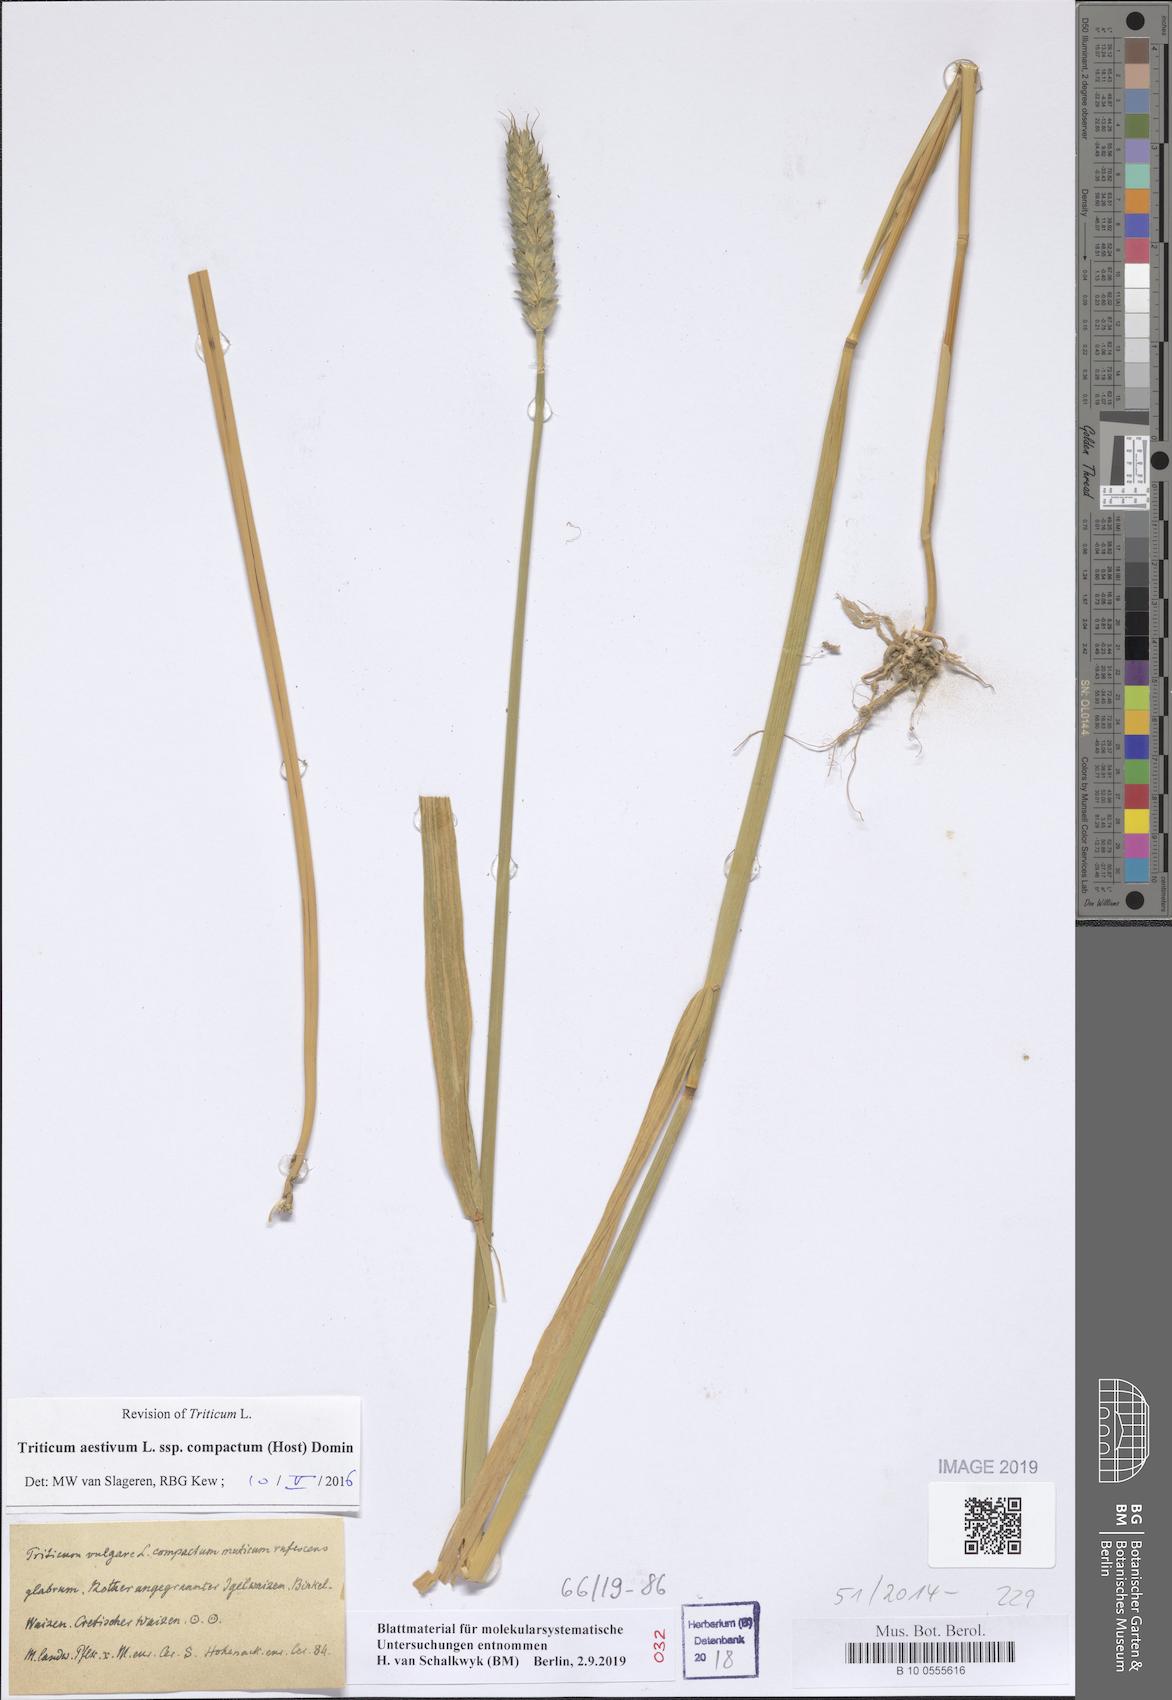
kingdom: Plantae
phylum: Tracheophyta
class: Liliopsida
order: Poales
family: Poaceae
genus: Triticum
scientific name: Triticum aestivum
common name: Common wheat
